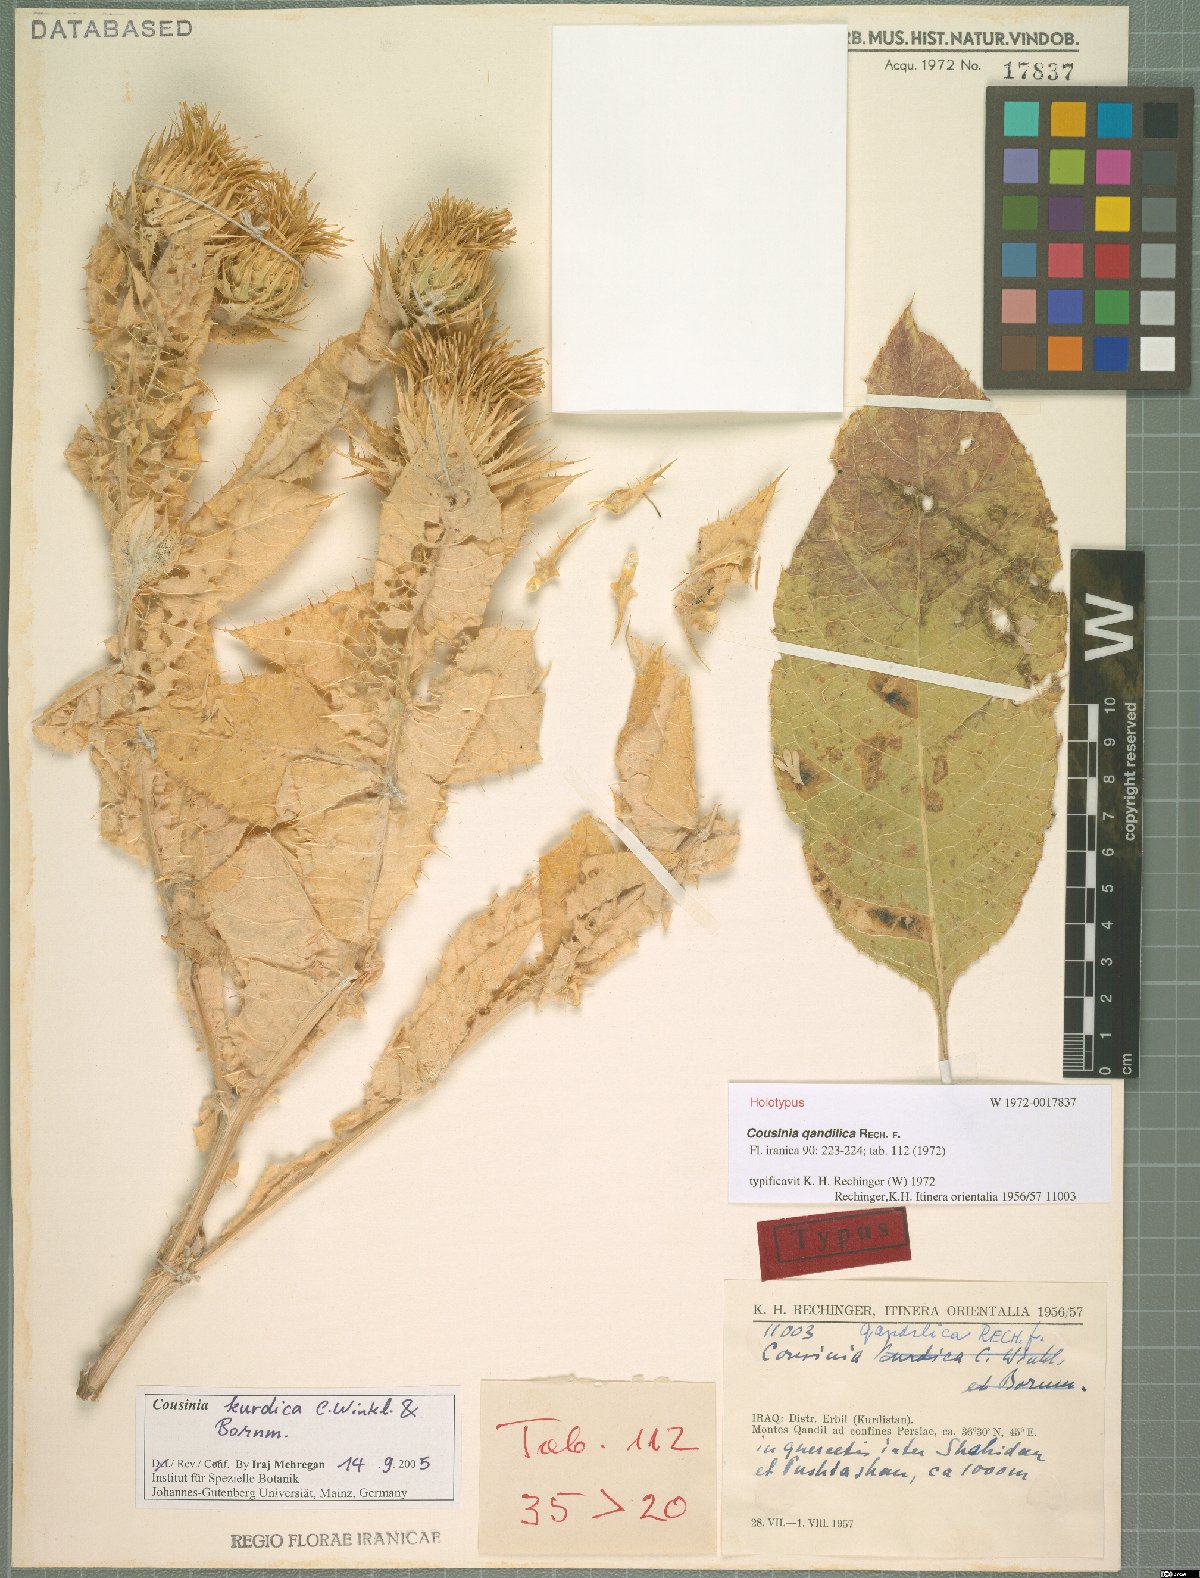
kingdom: Plantae
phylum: Tracheophyta
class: Magnoliopsida
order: Asterales
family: Asteraceae
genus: Cousinia
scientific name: Cousinia odontolepis
